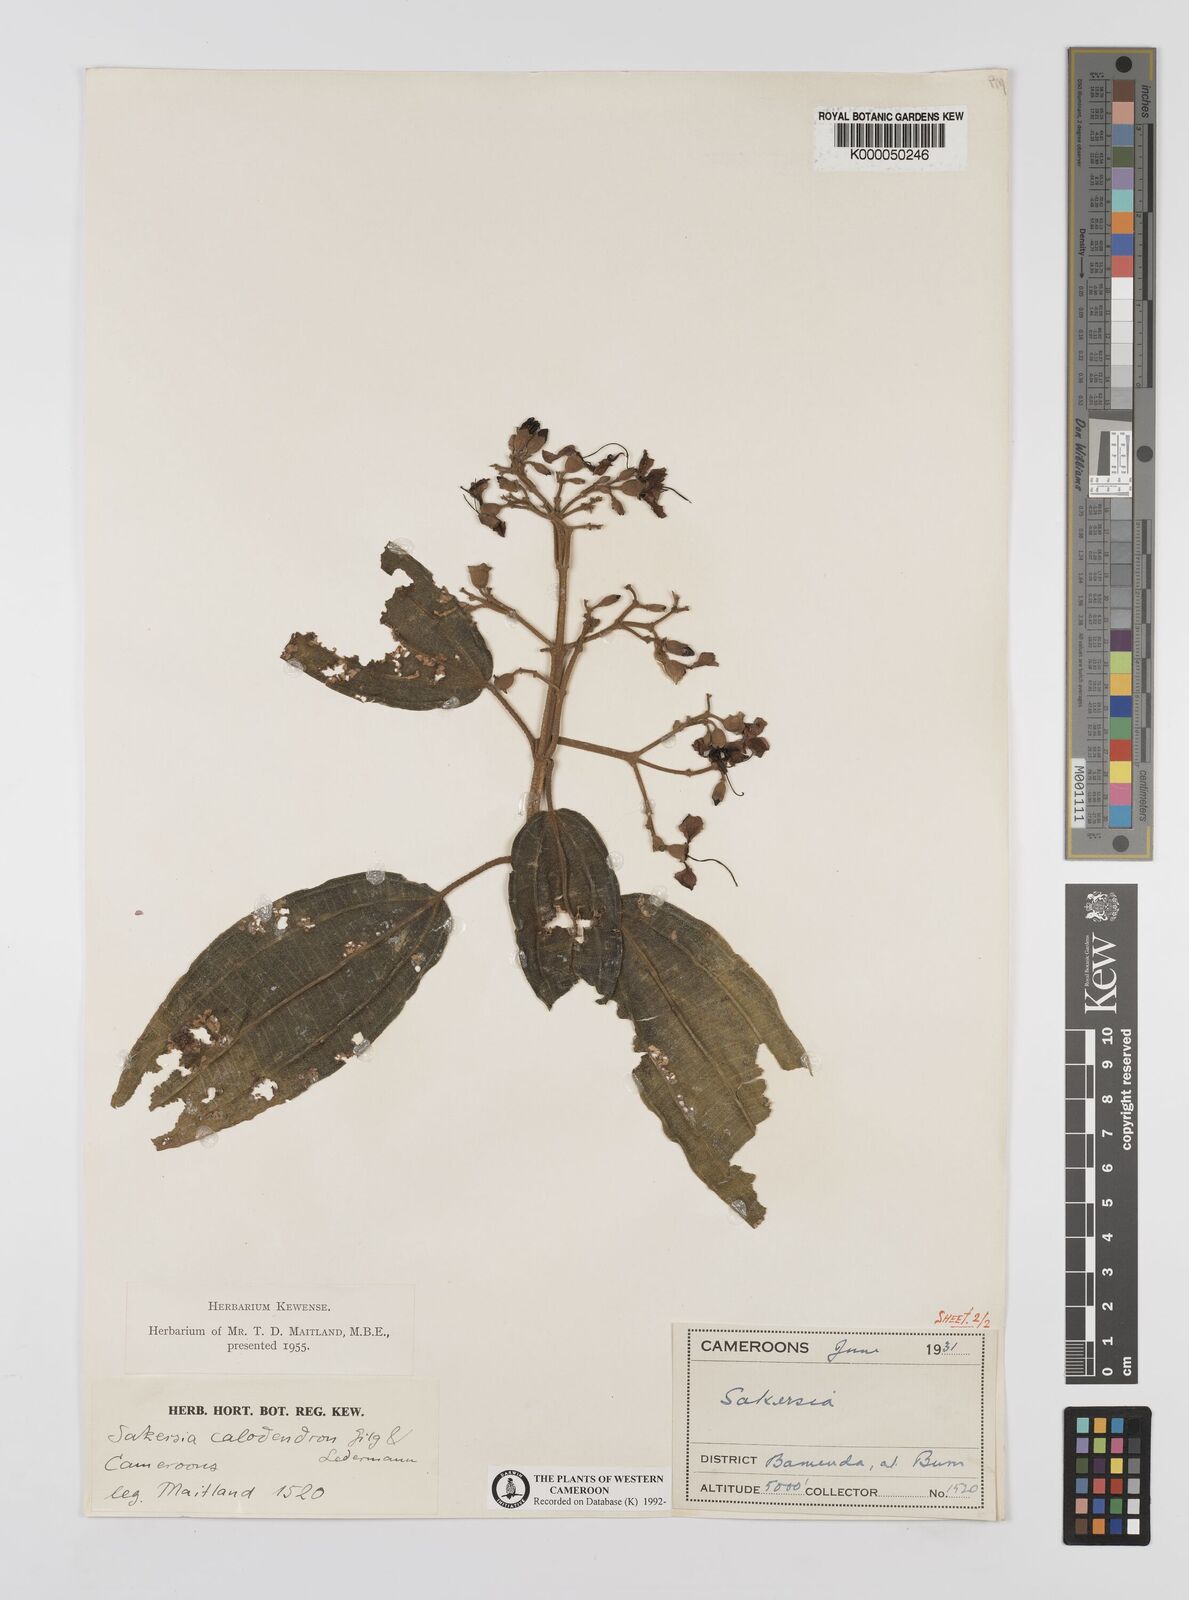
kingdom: Plantae
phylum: Tracheophyta
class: Magnoliopsida
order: Myrtales
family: Melastomataceae
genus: Dichaetanthera
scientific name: Dichaetanthera
